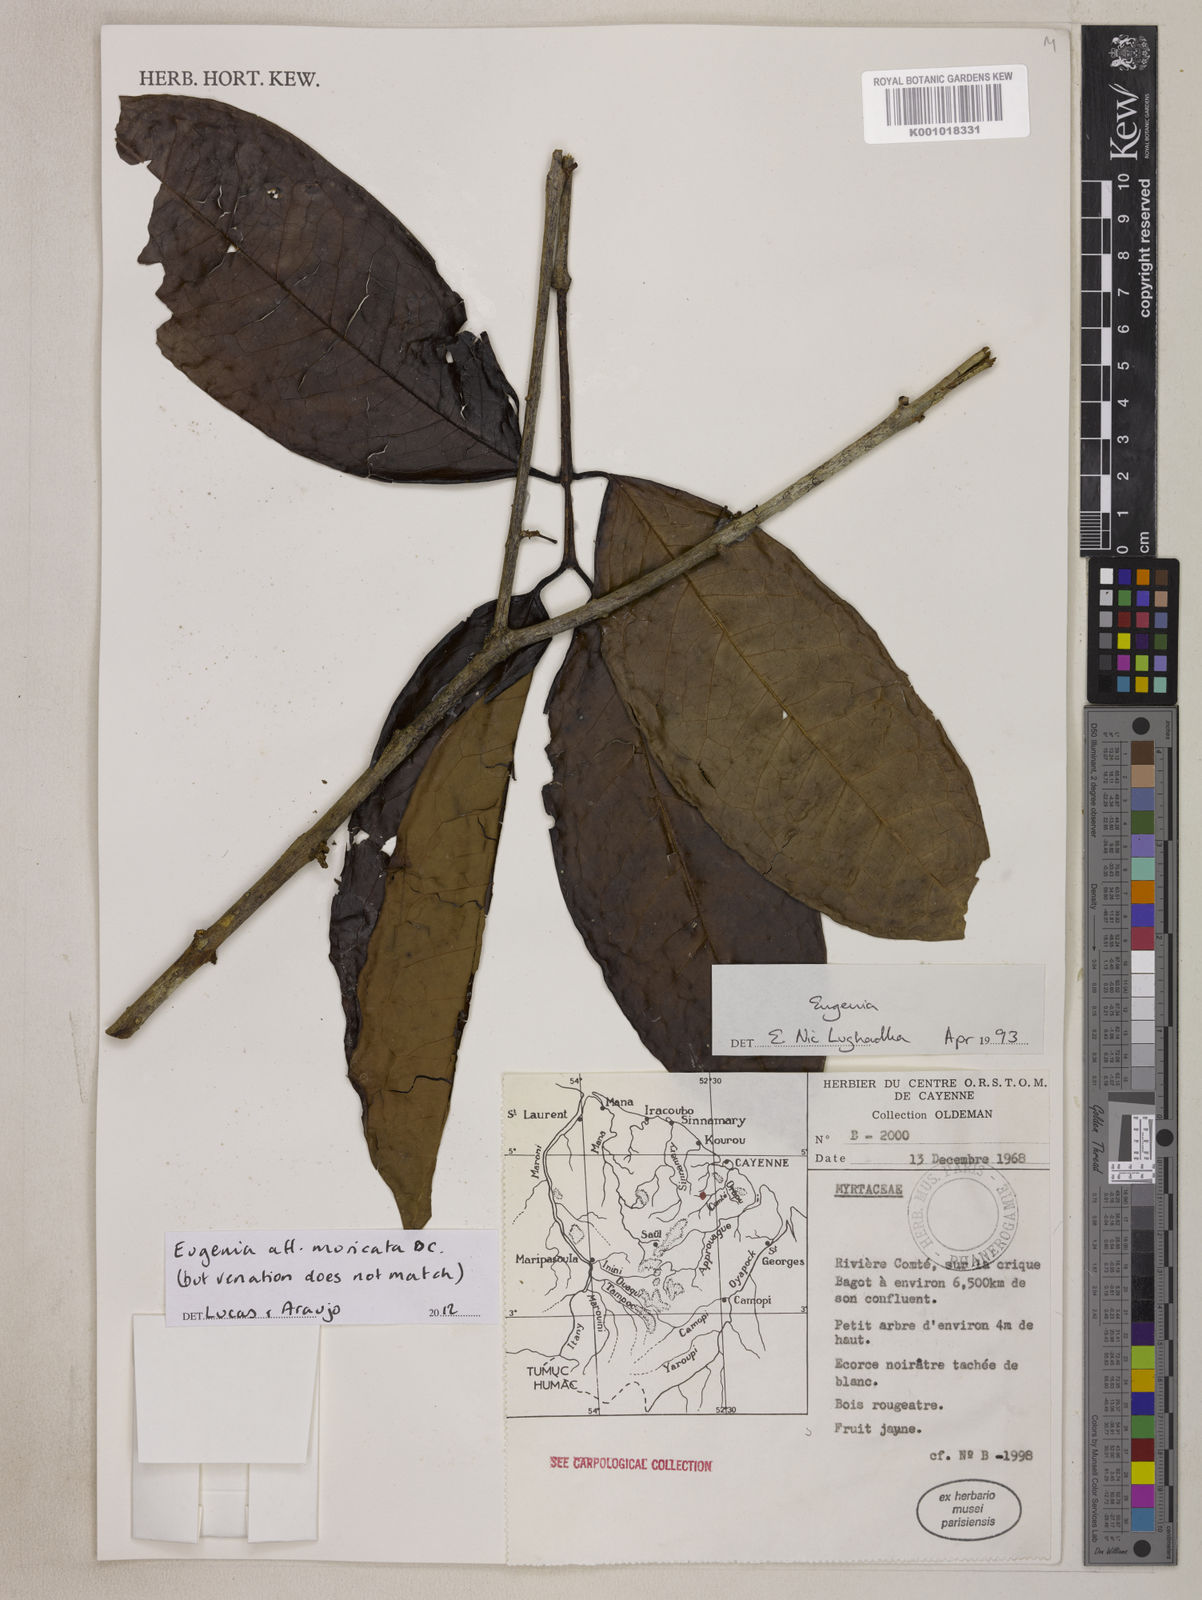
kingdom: Plantae
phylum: Tracheophyta
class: Magnoliopsida
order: Myrtales
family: Myrtaceae
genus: Eugenia
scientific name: Eugenia muricata
